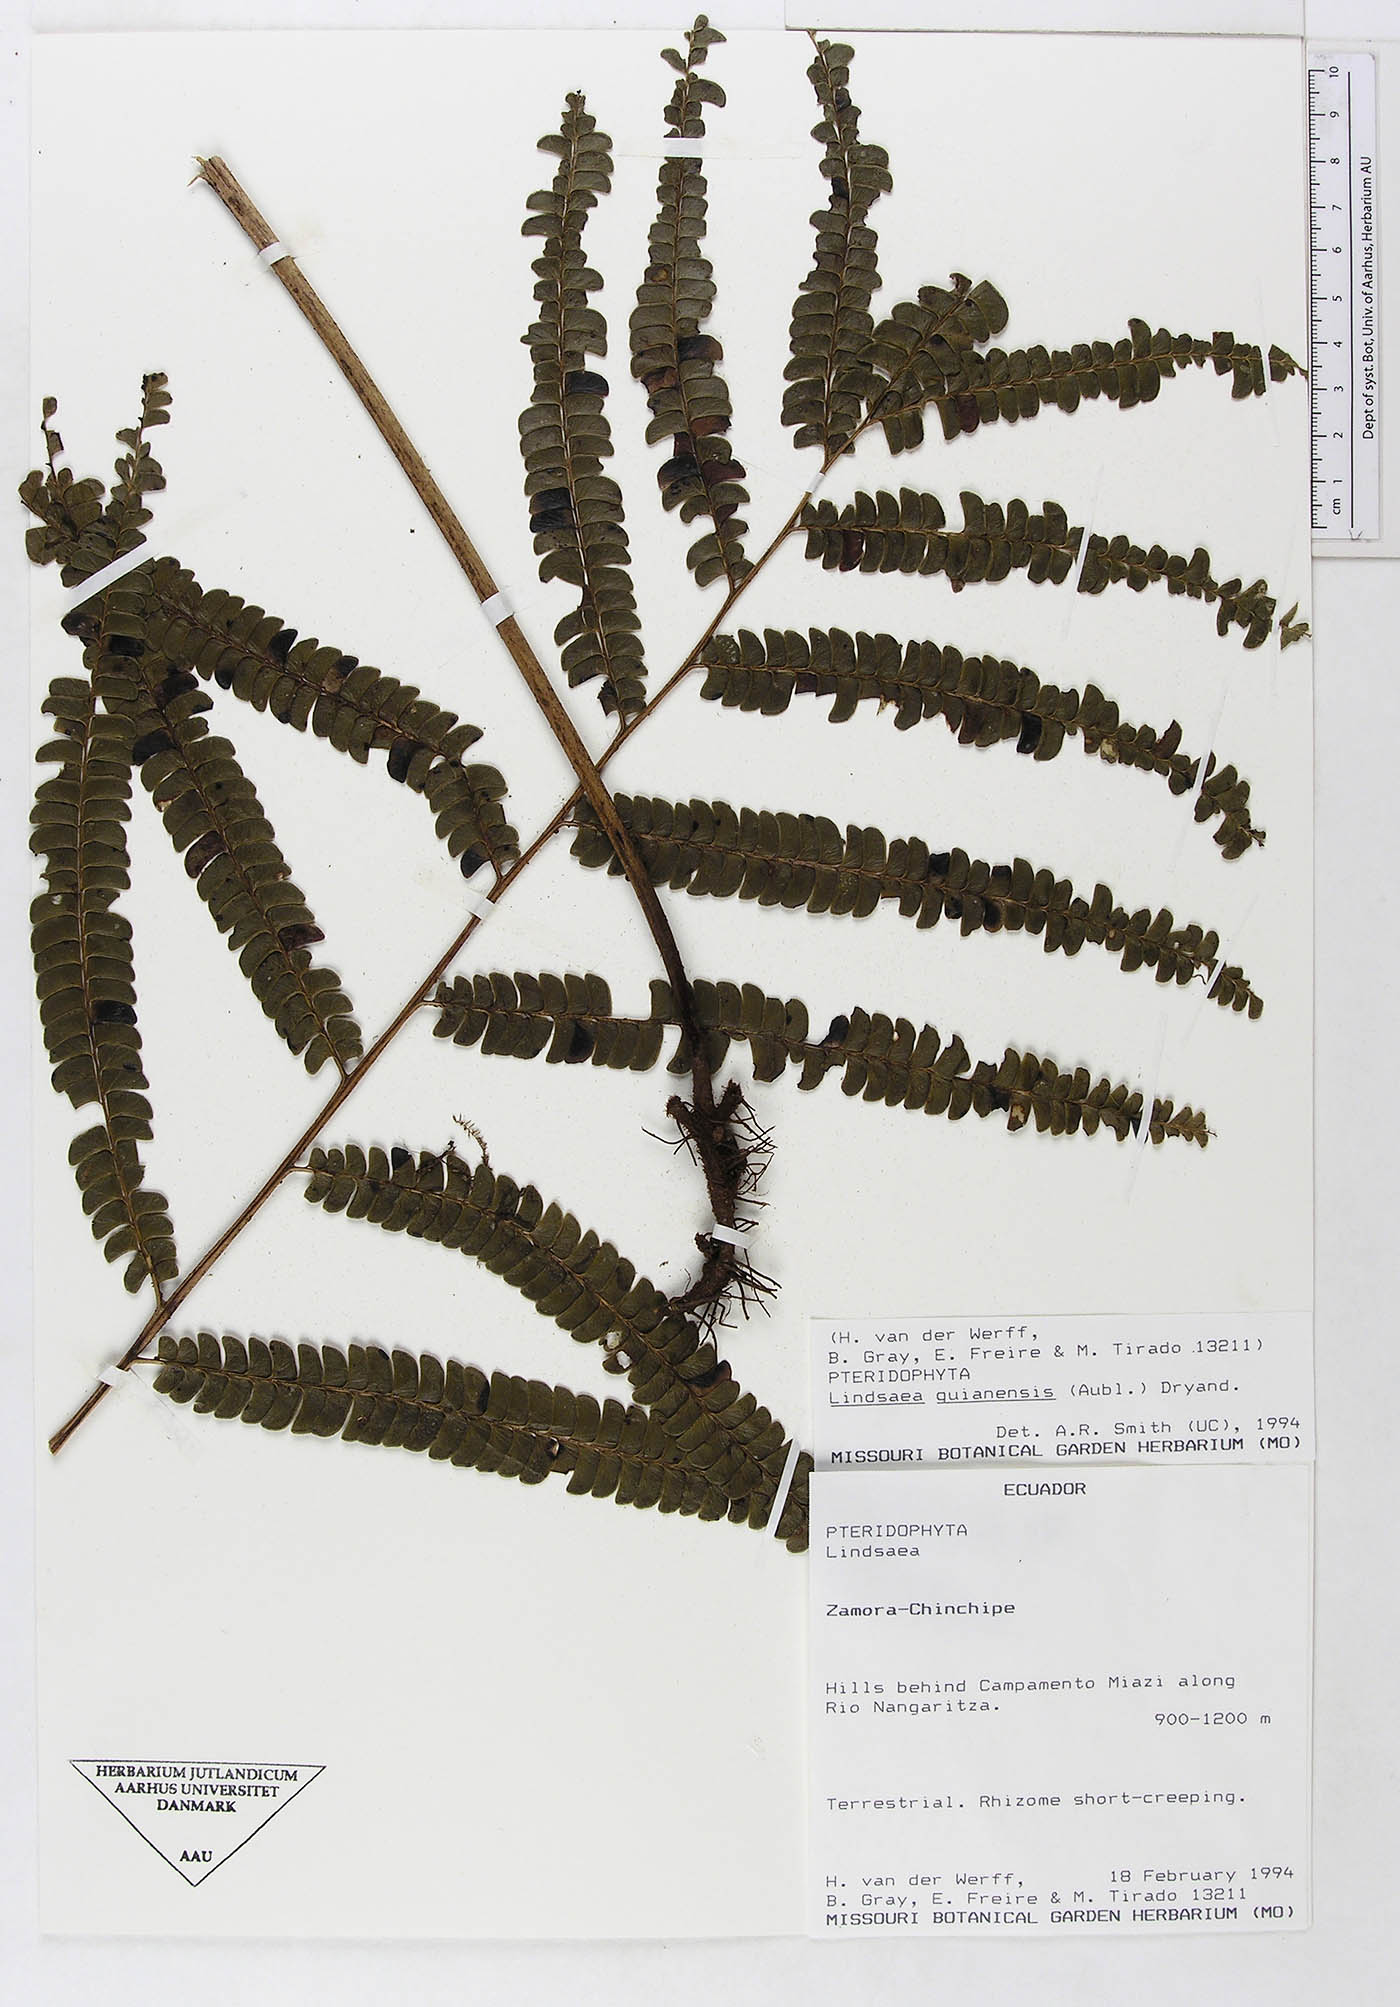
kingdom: Plantae
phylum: Tracheophyta
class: Polypodiopsida
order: Polypodiales
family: Lindsaeaceae
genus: Lindsaea
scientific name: Lindsaea guianensis
